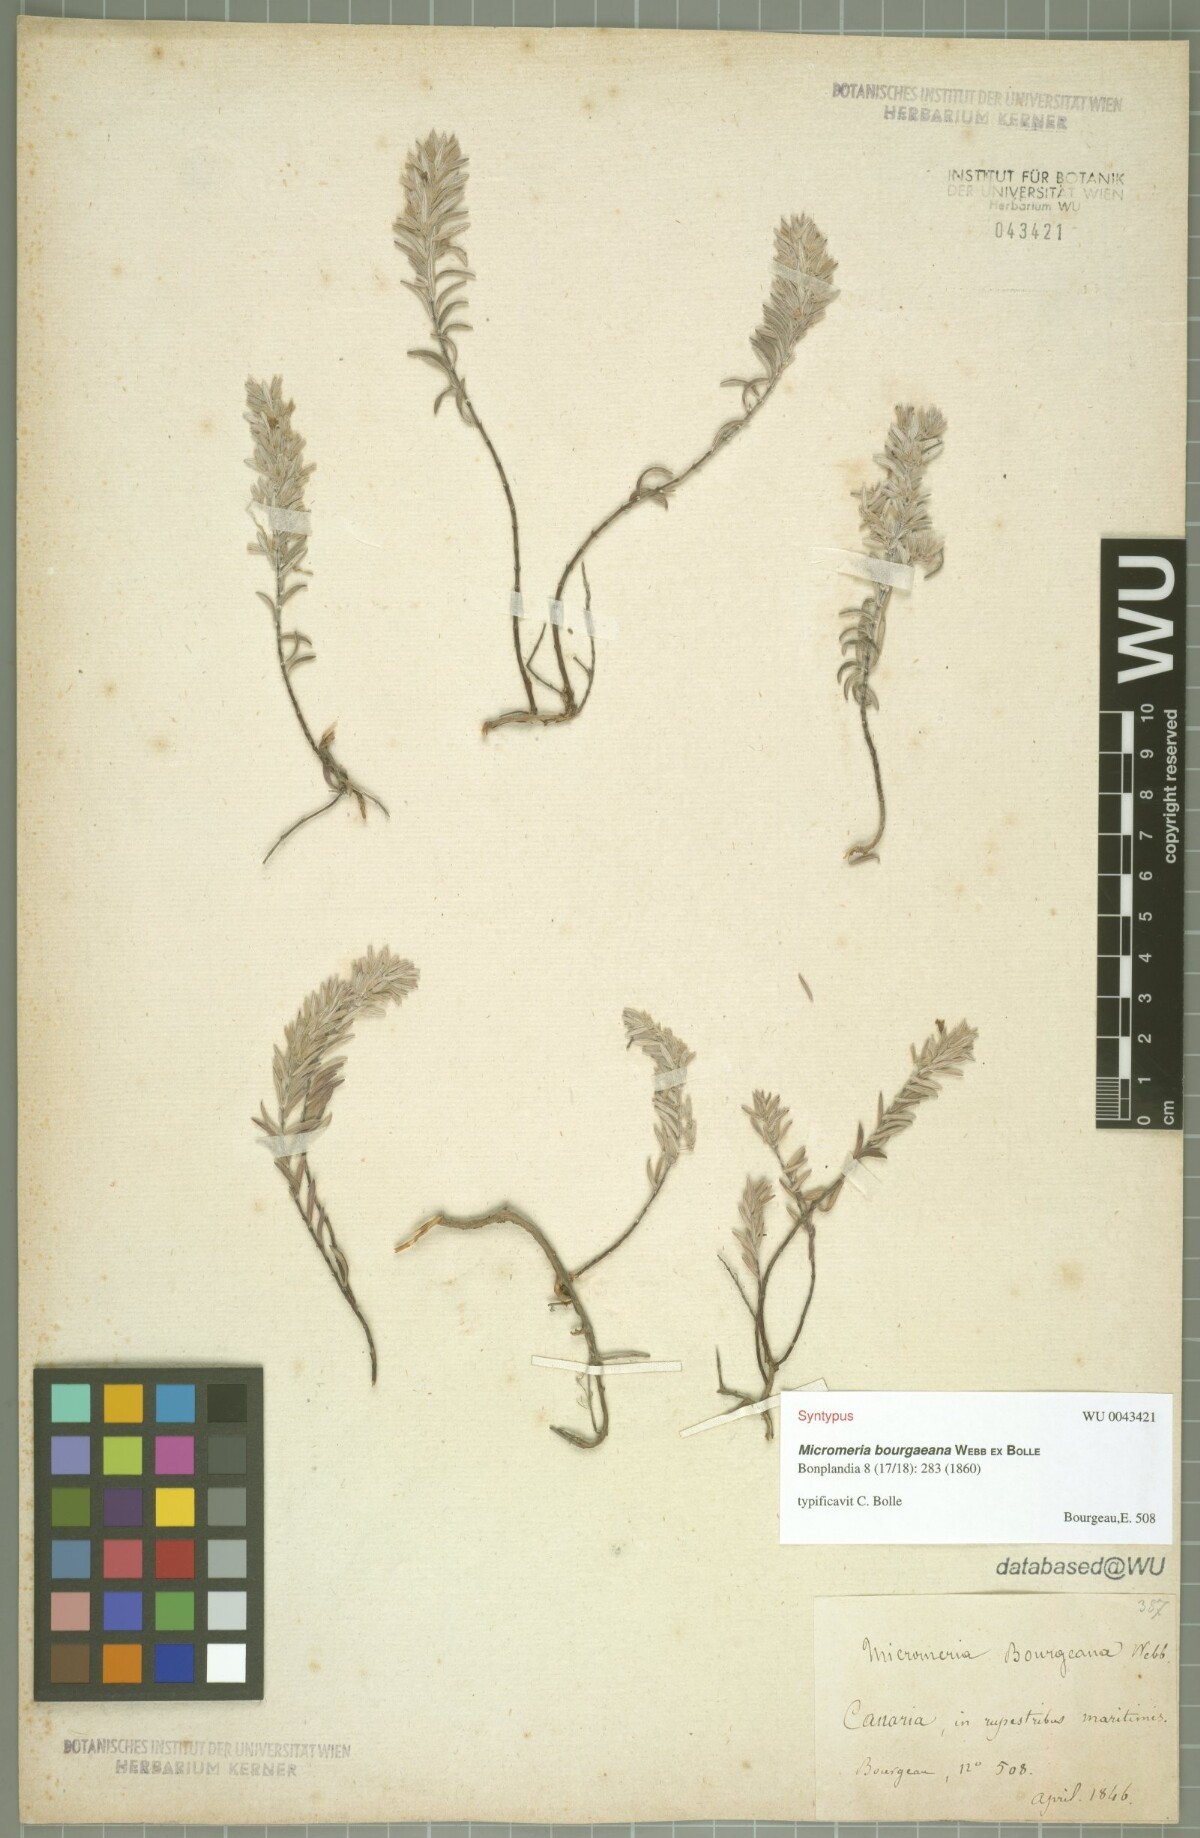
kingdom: Plantae
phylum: Tracheophyta
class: Magnoliopsida
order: Lamiales
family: Lamiaceae
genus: Micromeria
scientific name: Micromeria tenuis
